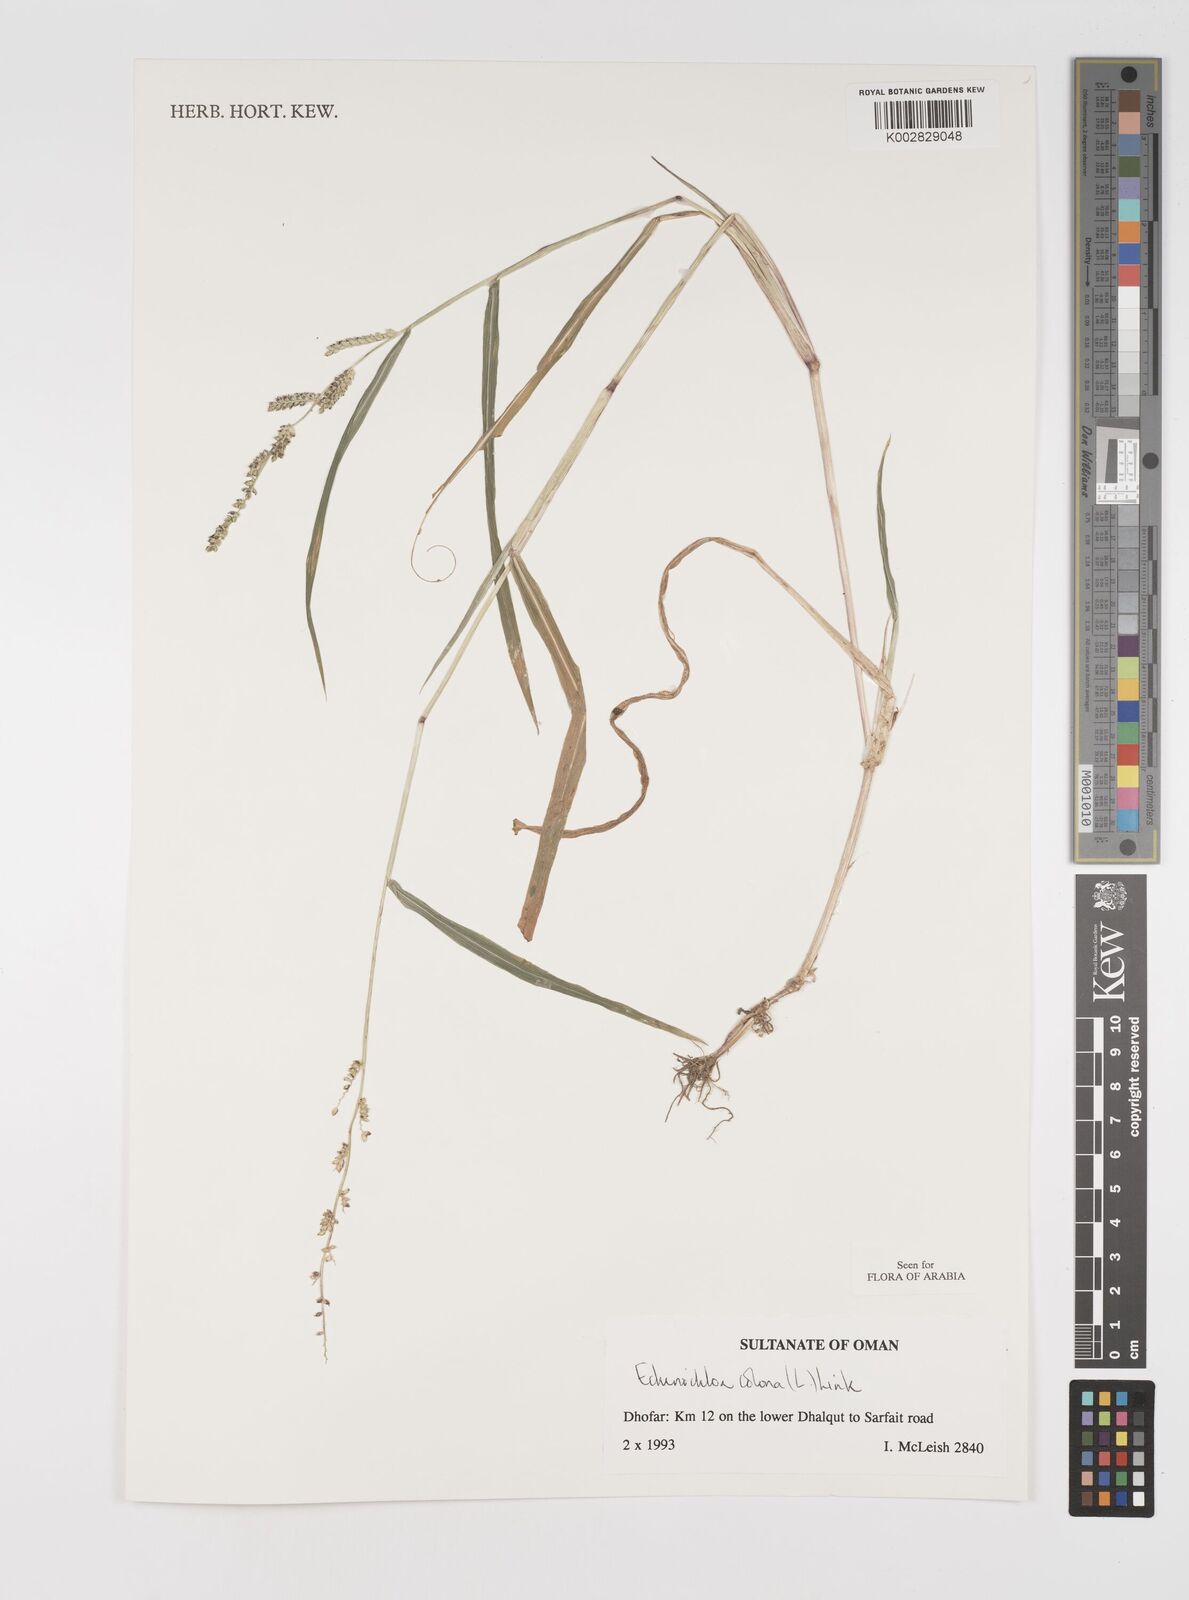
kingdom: Plantae
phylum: Tracheophyta
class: Liliopsida
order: Poales
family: Poaceae
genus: Echinochloa
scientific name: Echinochloa colonum
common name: Jungle rice
